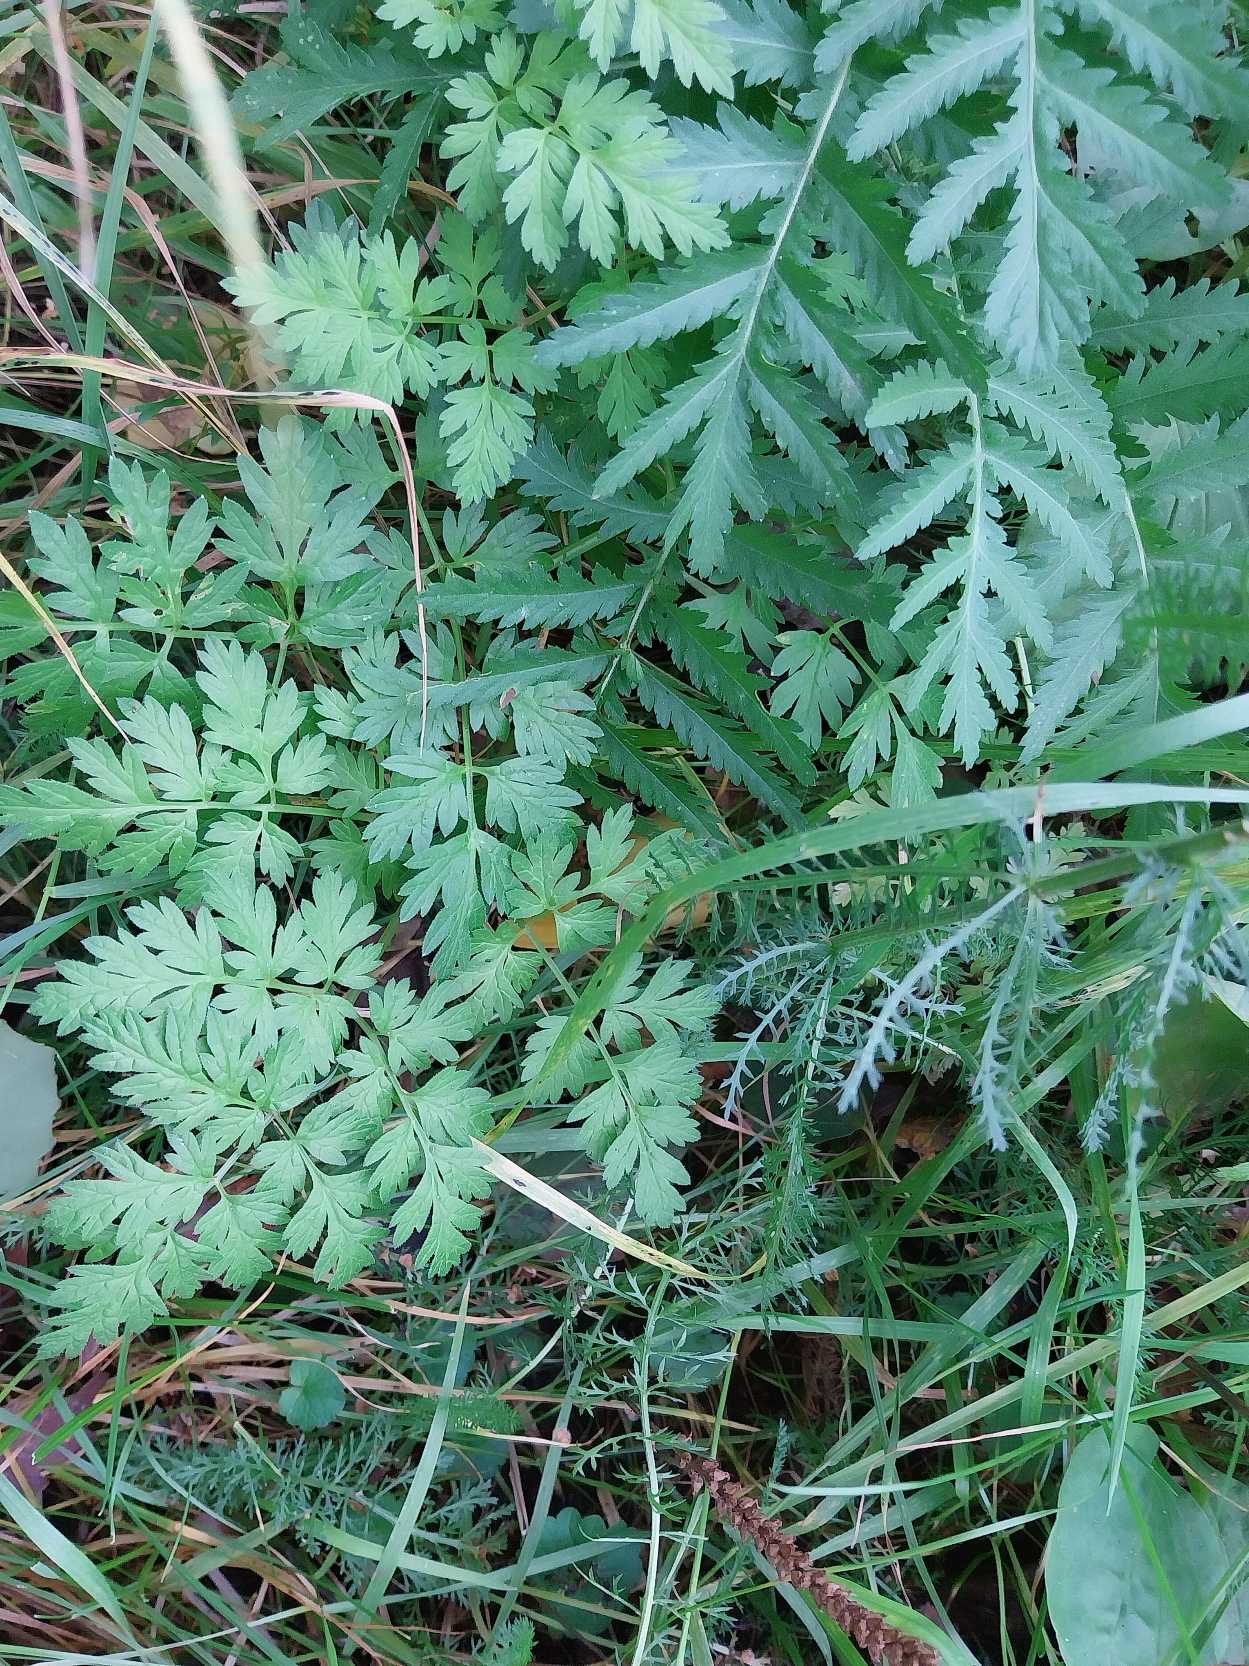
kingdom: Plantae
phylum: Tracheophyta
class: Magnoliopsida
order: Apiales
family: Apiaceae
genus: Anthriscus
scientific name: Anthriscus sylvestris
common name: Vild kørvel
